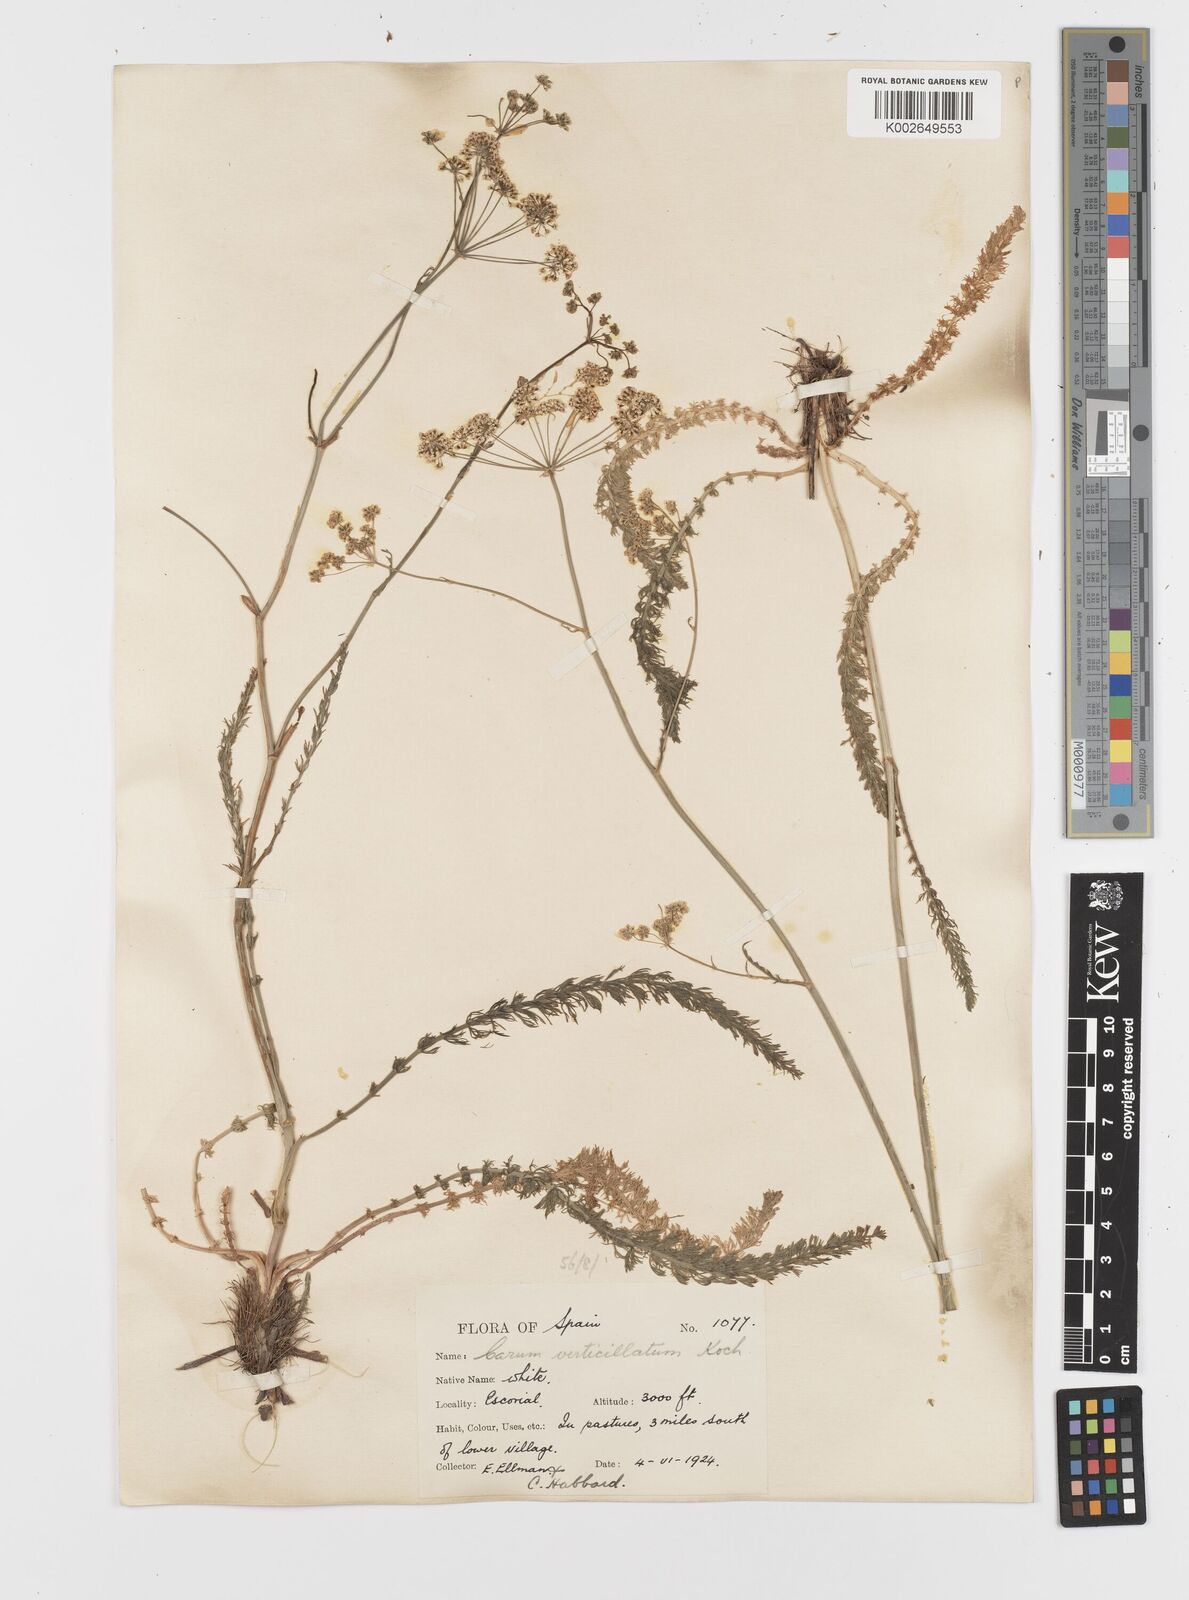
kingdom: Plantae
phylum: Tracheophyta
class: Magnoliopsida
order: Apiales
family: Apiaceae
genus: Trocdaris
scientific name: Trocdaris verticillatum
